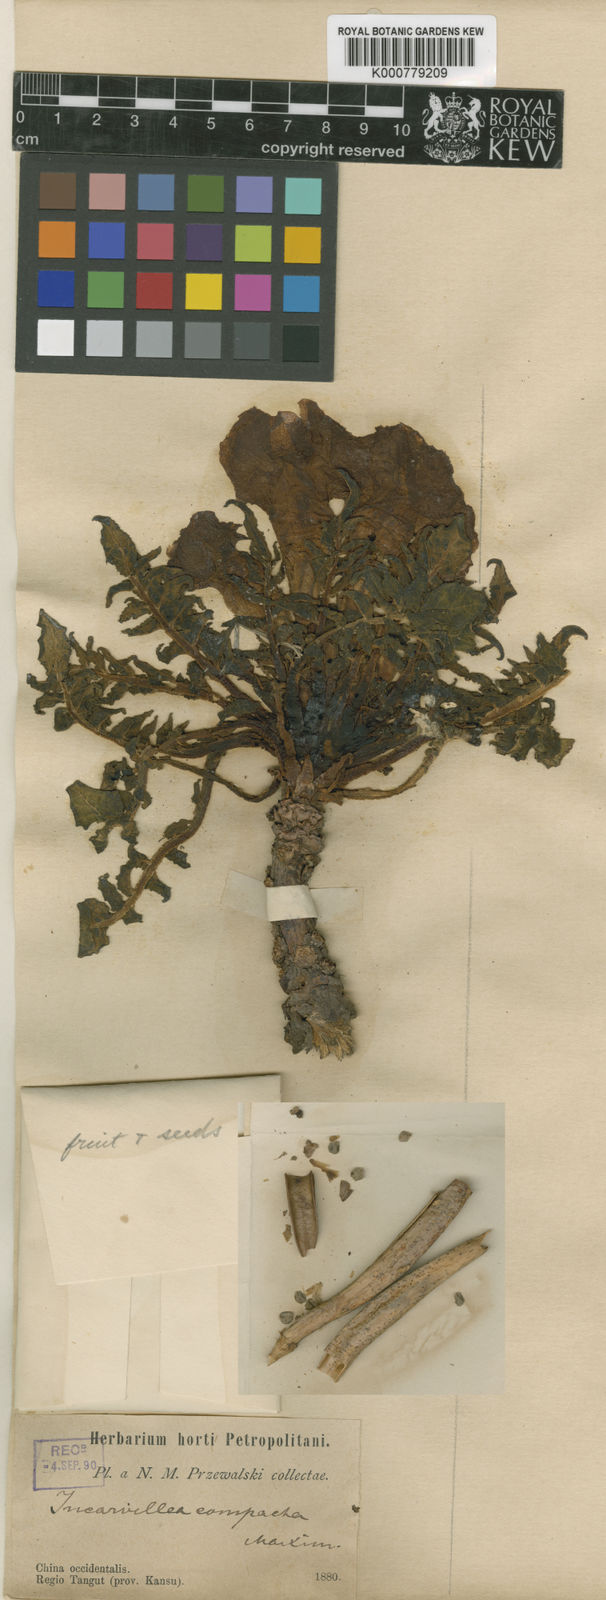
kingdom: Plantae
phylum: Tracheophyta
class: Magnoliopsida
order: Lamiales
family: Bignoniaceae
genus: Incarvillea
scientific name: Incarvillea compacta
